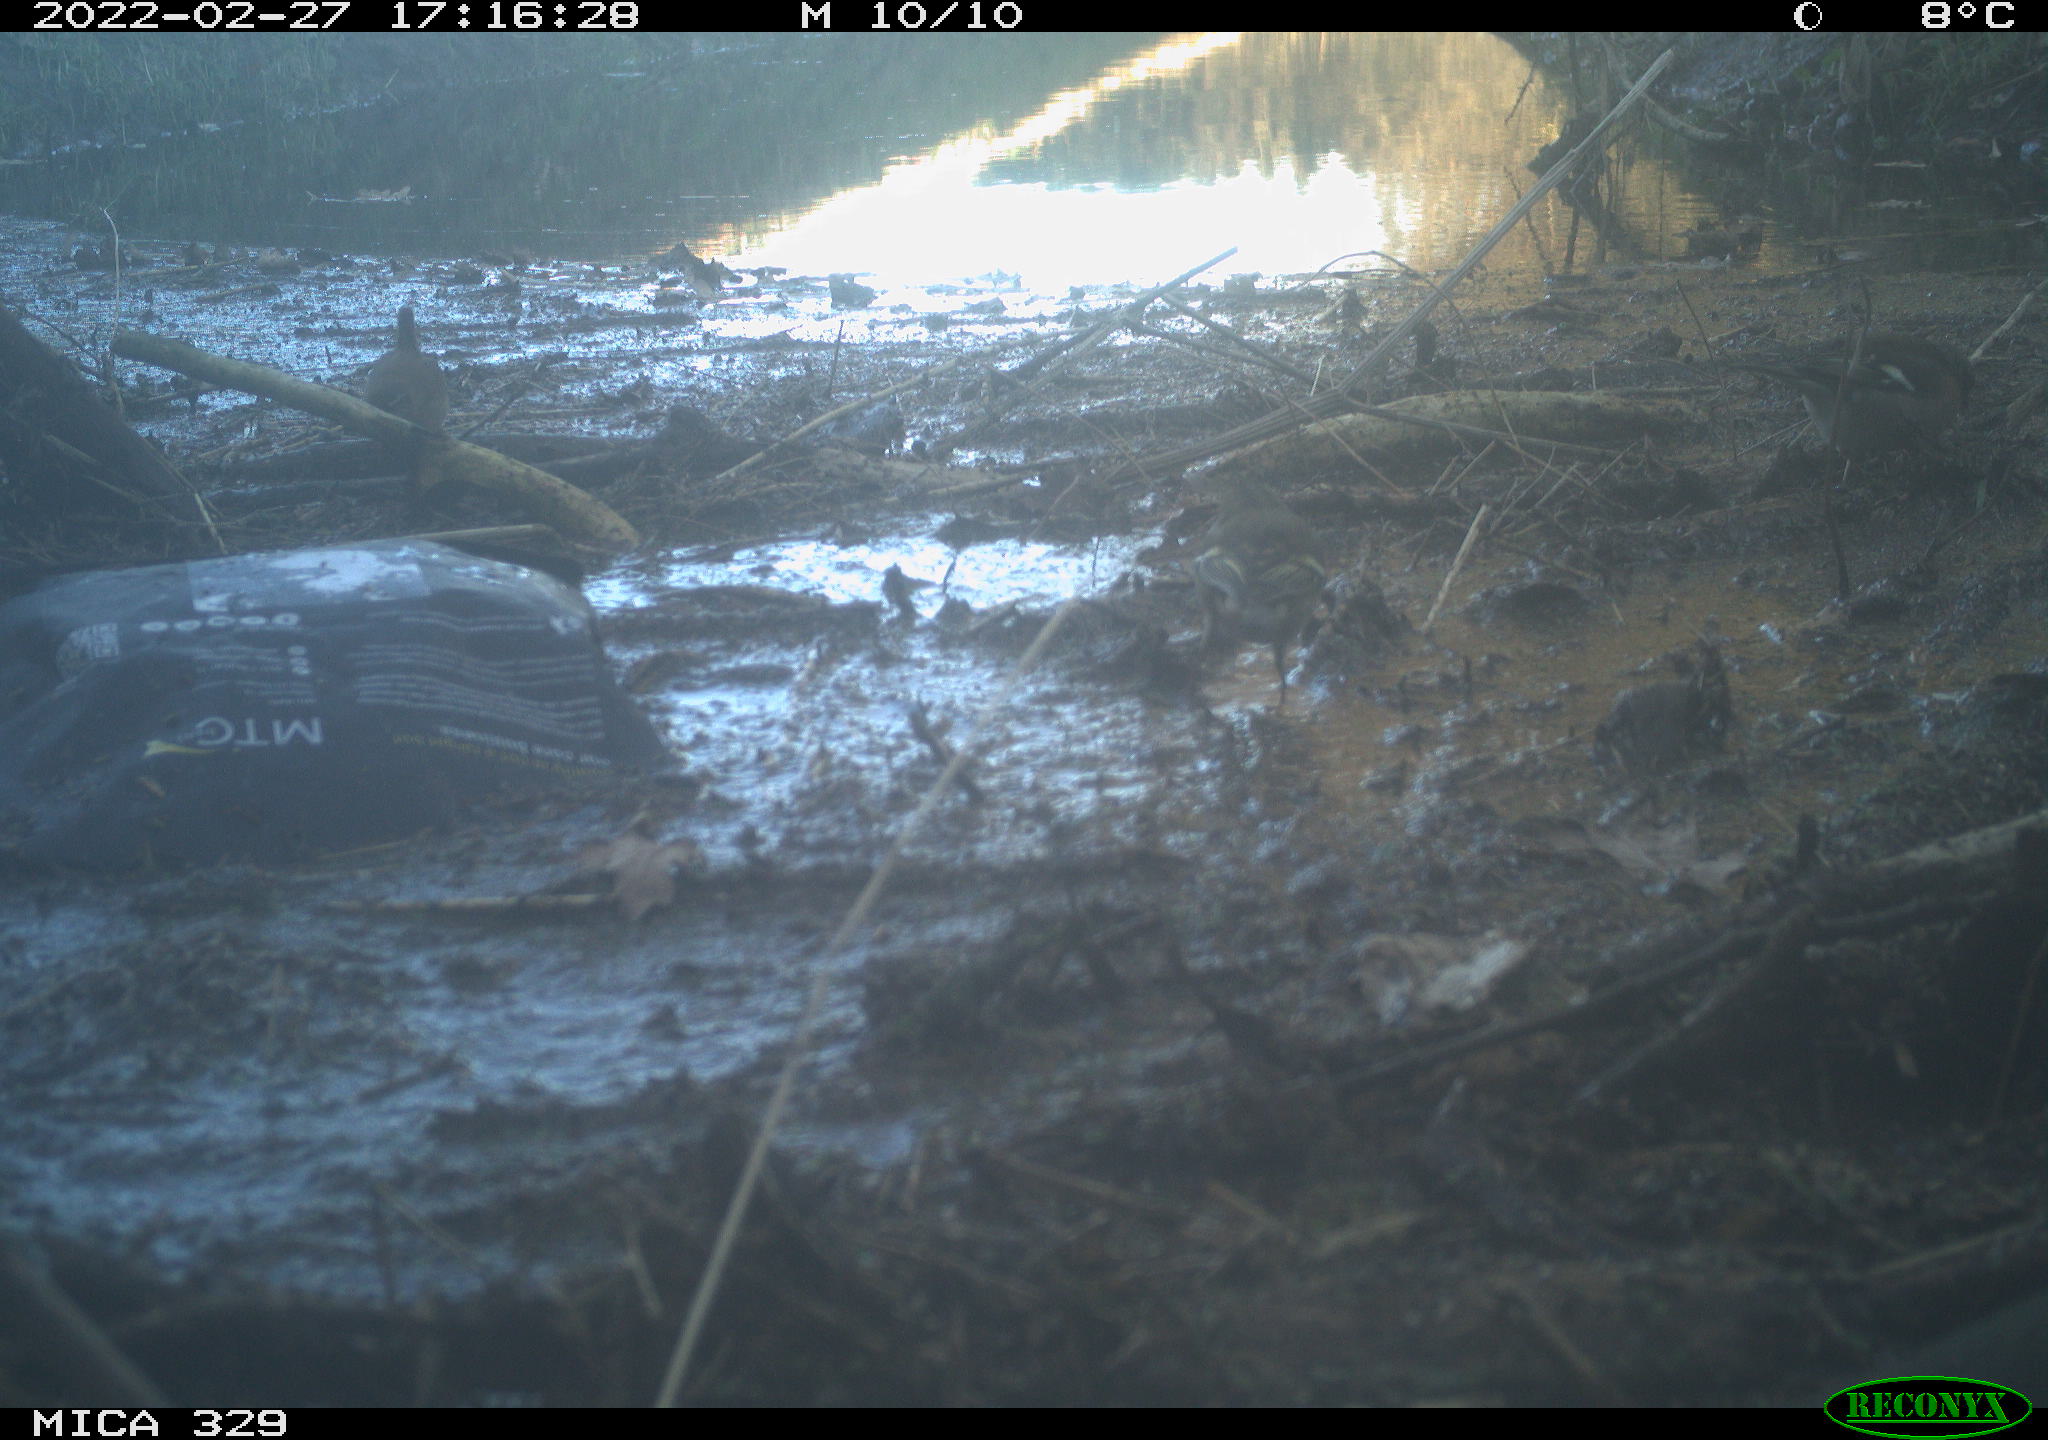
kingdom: Animalia
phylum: Chordata
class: Aves
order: Passeriformes
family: Fringillidae
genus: Fringilla
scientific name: Fringilla coelebs
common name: Common chaffinch
